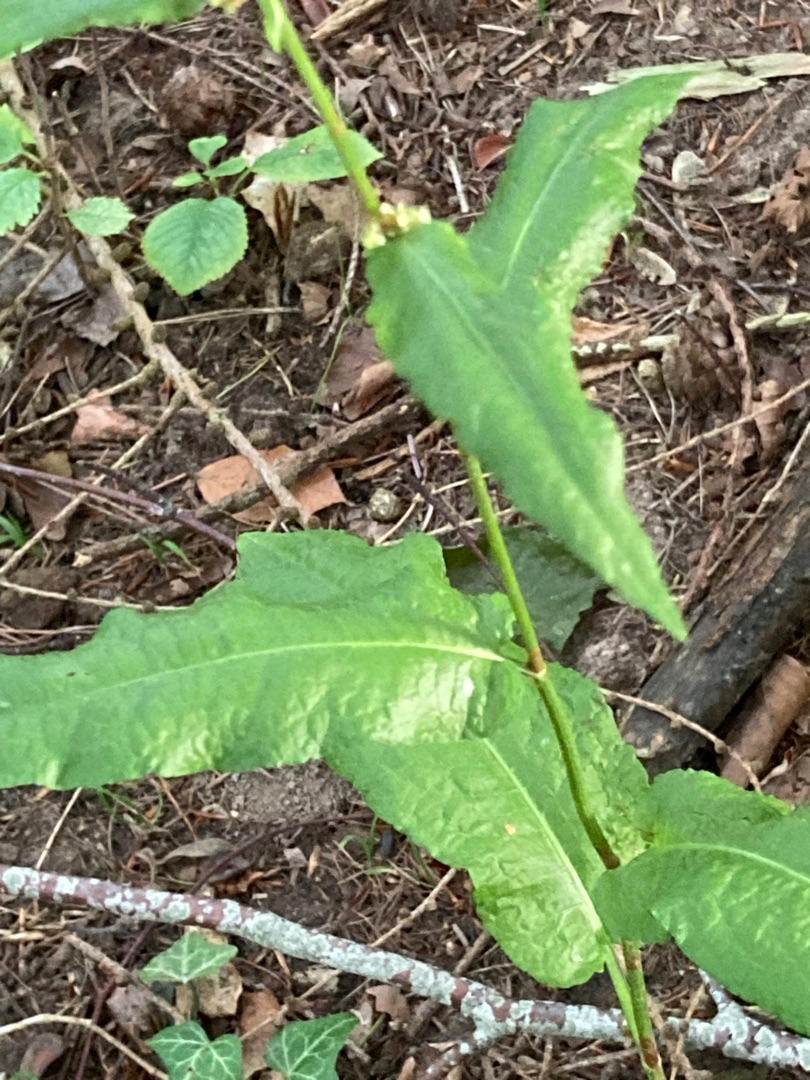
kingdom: Plantae
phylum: Tracheophyta
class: Magnoliopsida
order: Caryophyllales
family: Polygonaceae
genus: Rumex
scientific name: Rumex sanguineus
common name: Skov-skræppe
